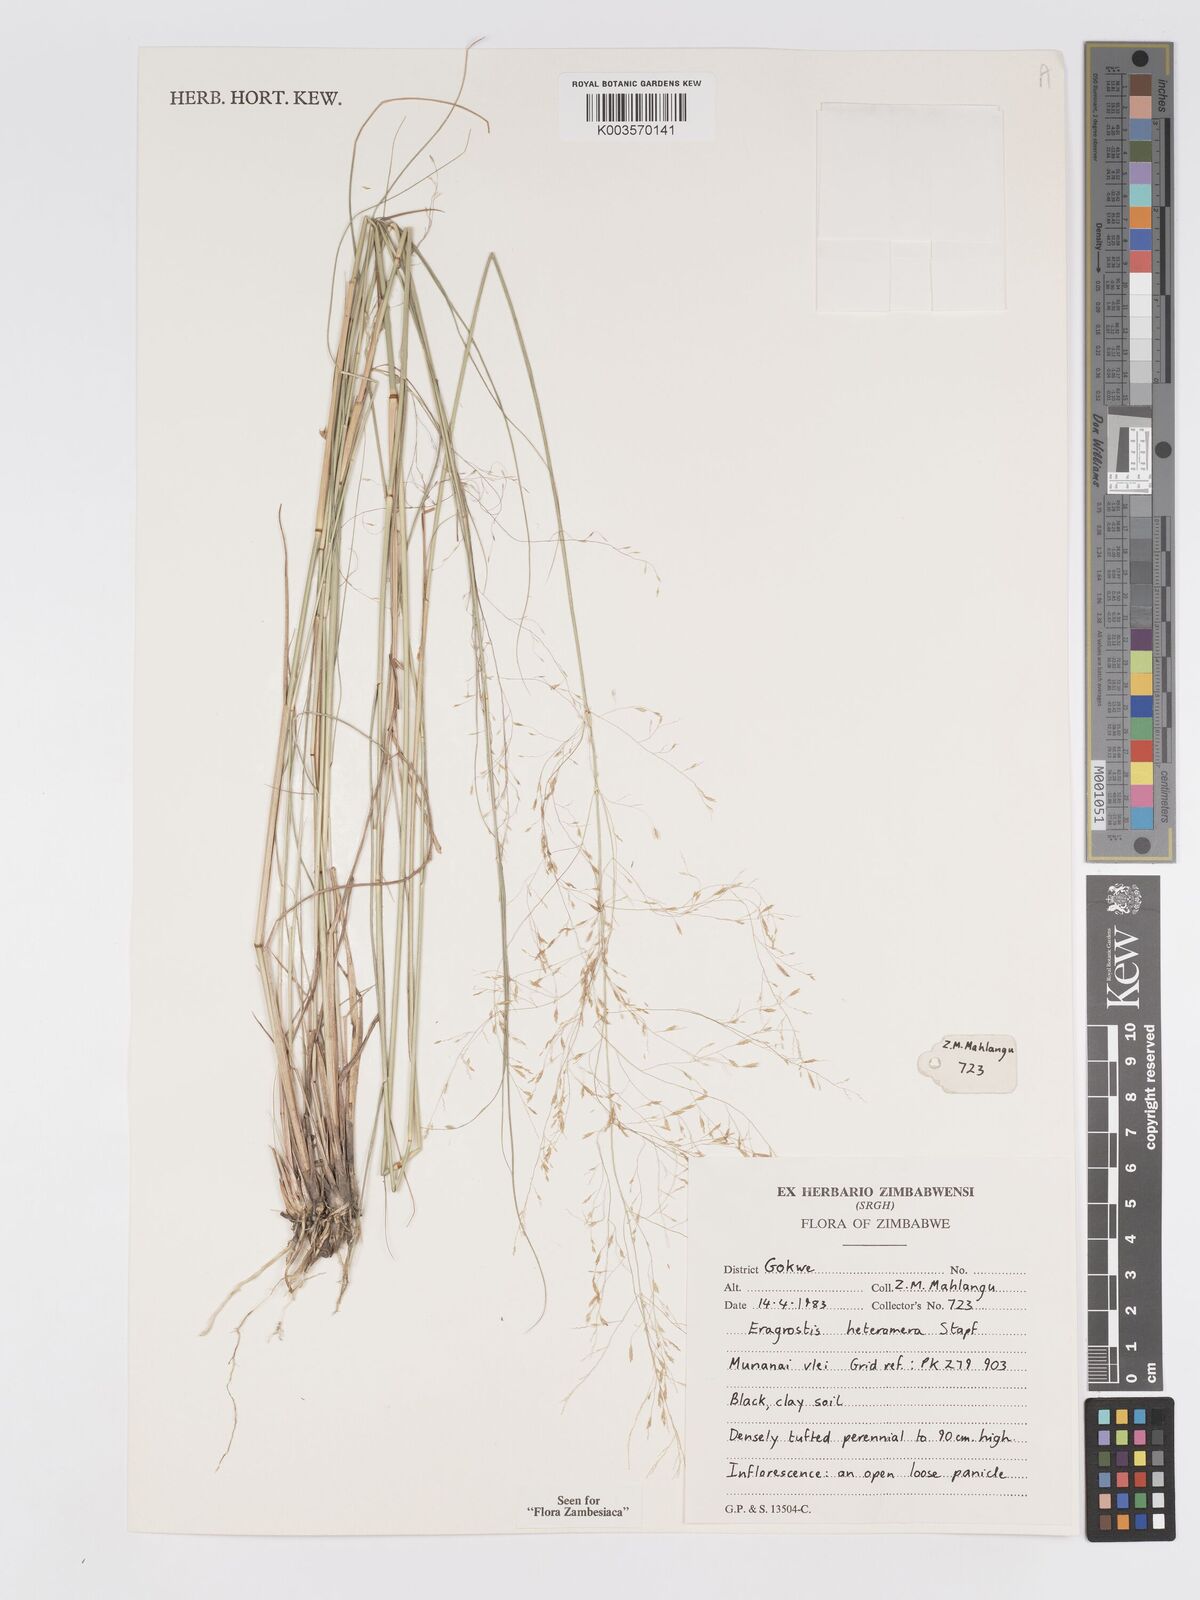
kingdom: Plantae
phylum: Tracheophyta
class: Liliopsida
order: Poales
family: Poaceae
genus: Eragrostis
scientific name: Eragrostis heteromera
